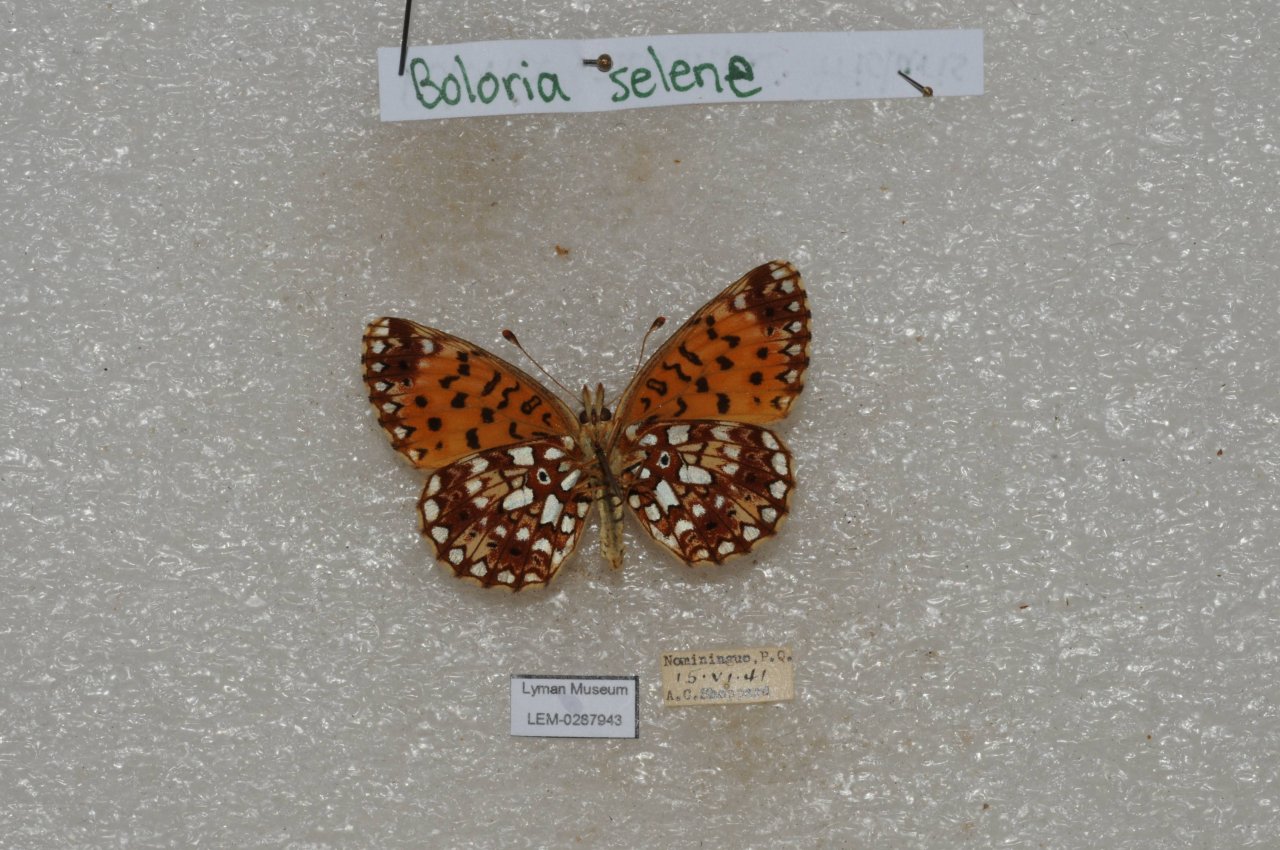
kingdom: Animalia
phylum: Arthropoda
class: Insecta
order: Lepidoptera
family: Nymphalidae
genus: Boloria
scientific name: Boloria
